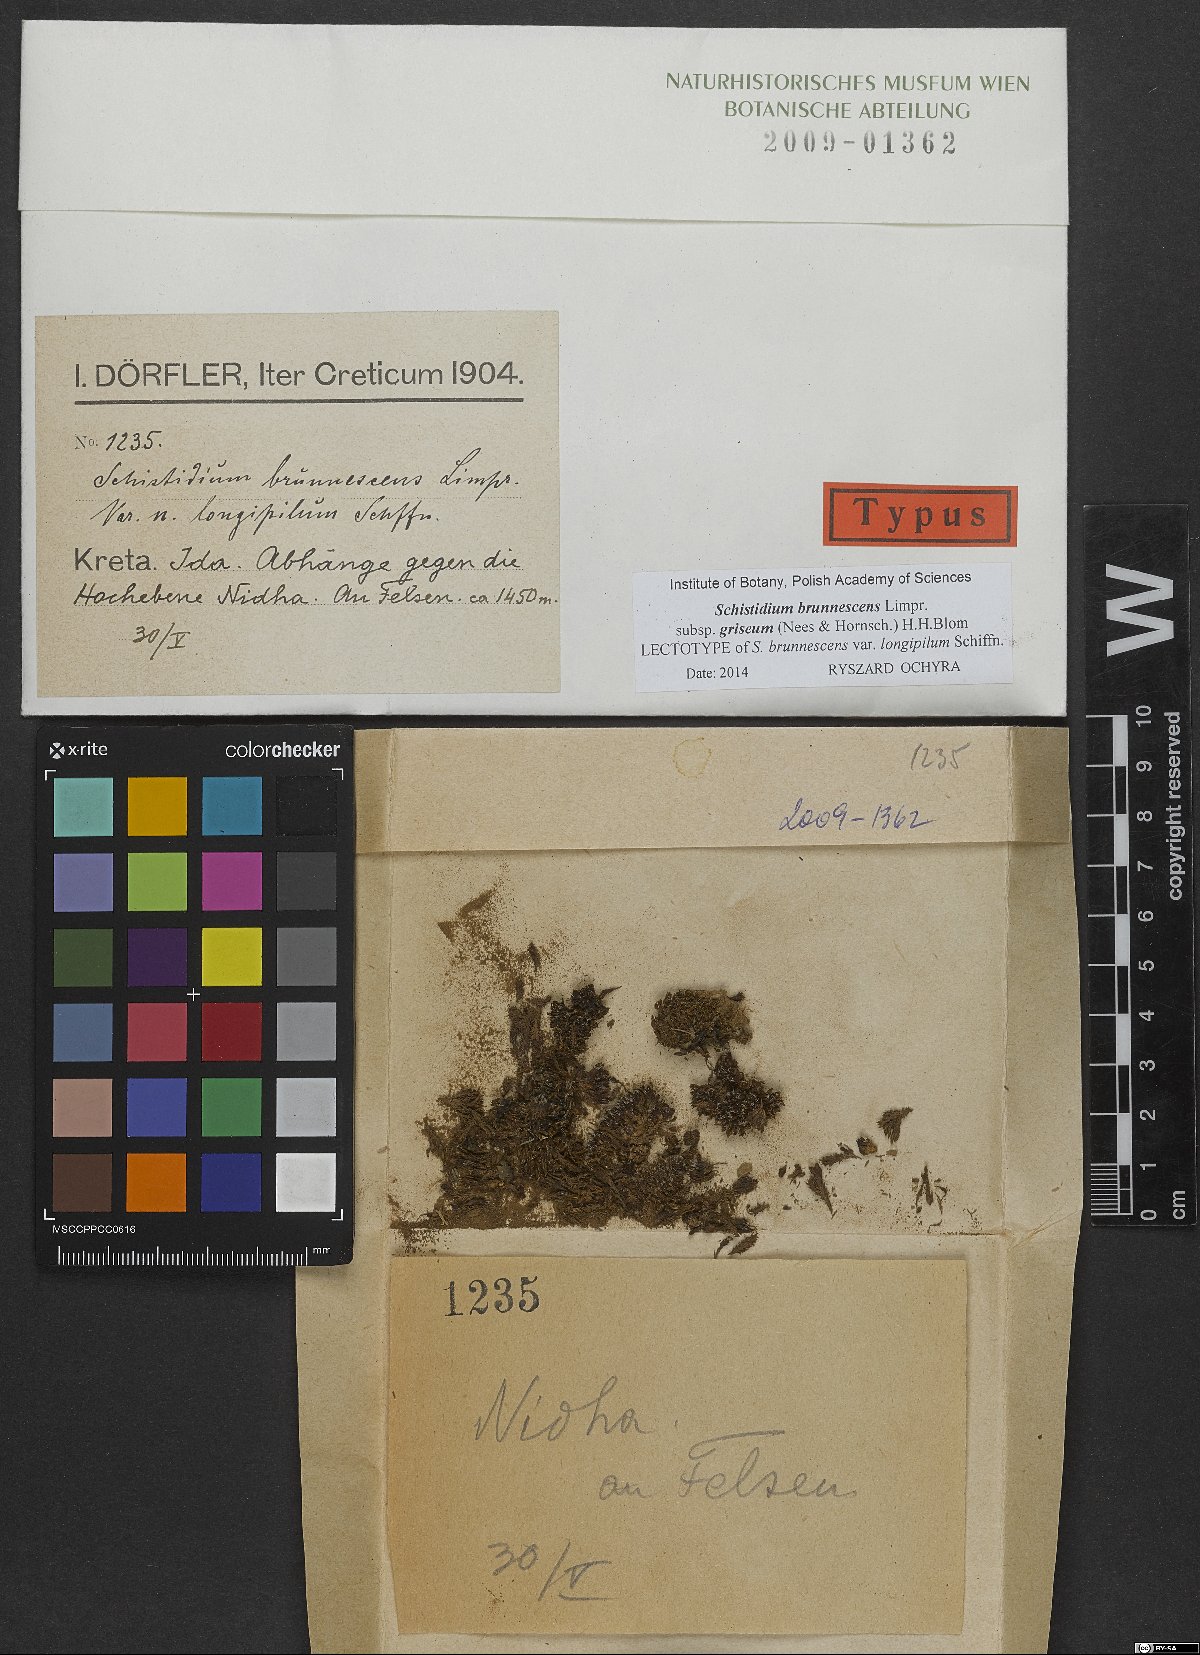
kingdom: Plantae
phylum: Bryophyta
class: Bryopsida
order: Grimmiales
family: Grimmiaceae
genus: Schistidium
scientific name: Schistidium brunnescens
